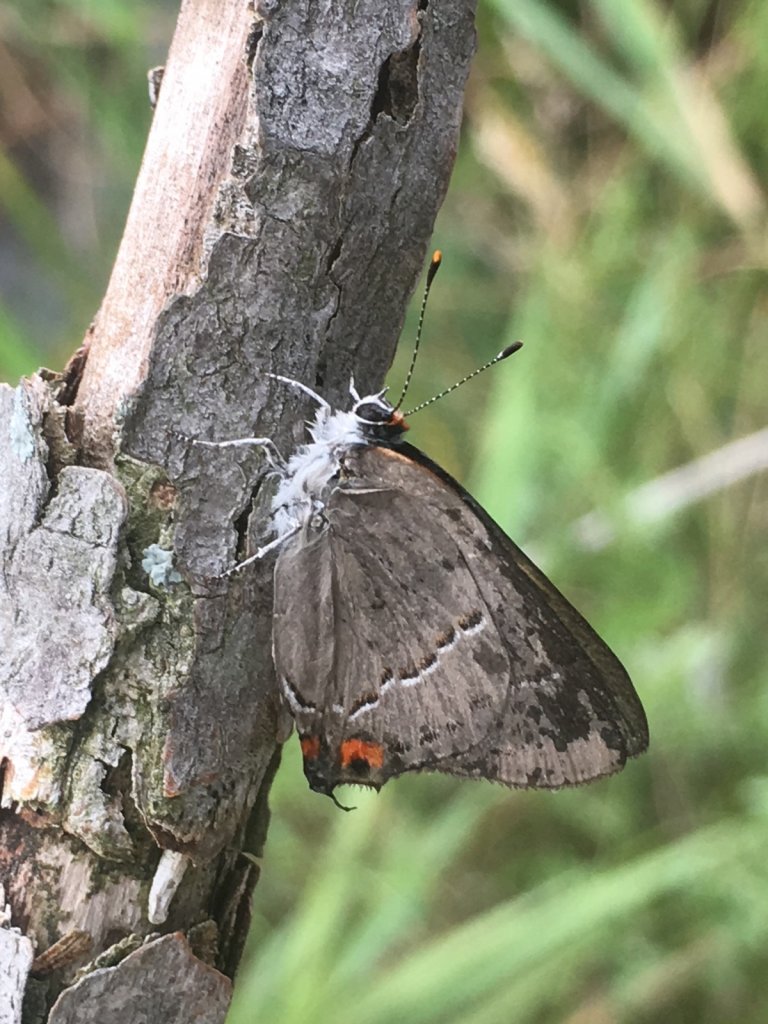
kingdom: Animalia
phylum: Arthropoda
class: Insecta
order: Lepidoptera
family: Lycaenidae
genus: Strymon
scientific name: Strymon melinus
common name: Gray Hairstreak
